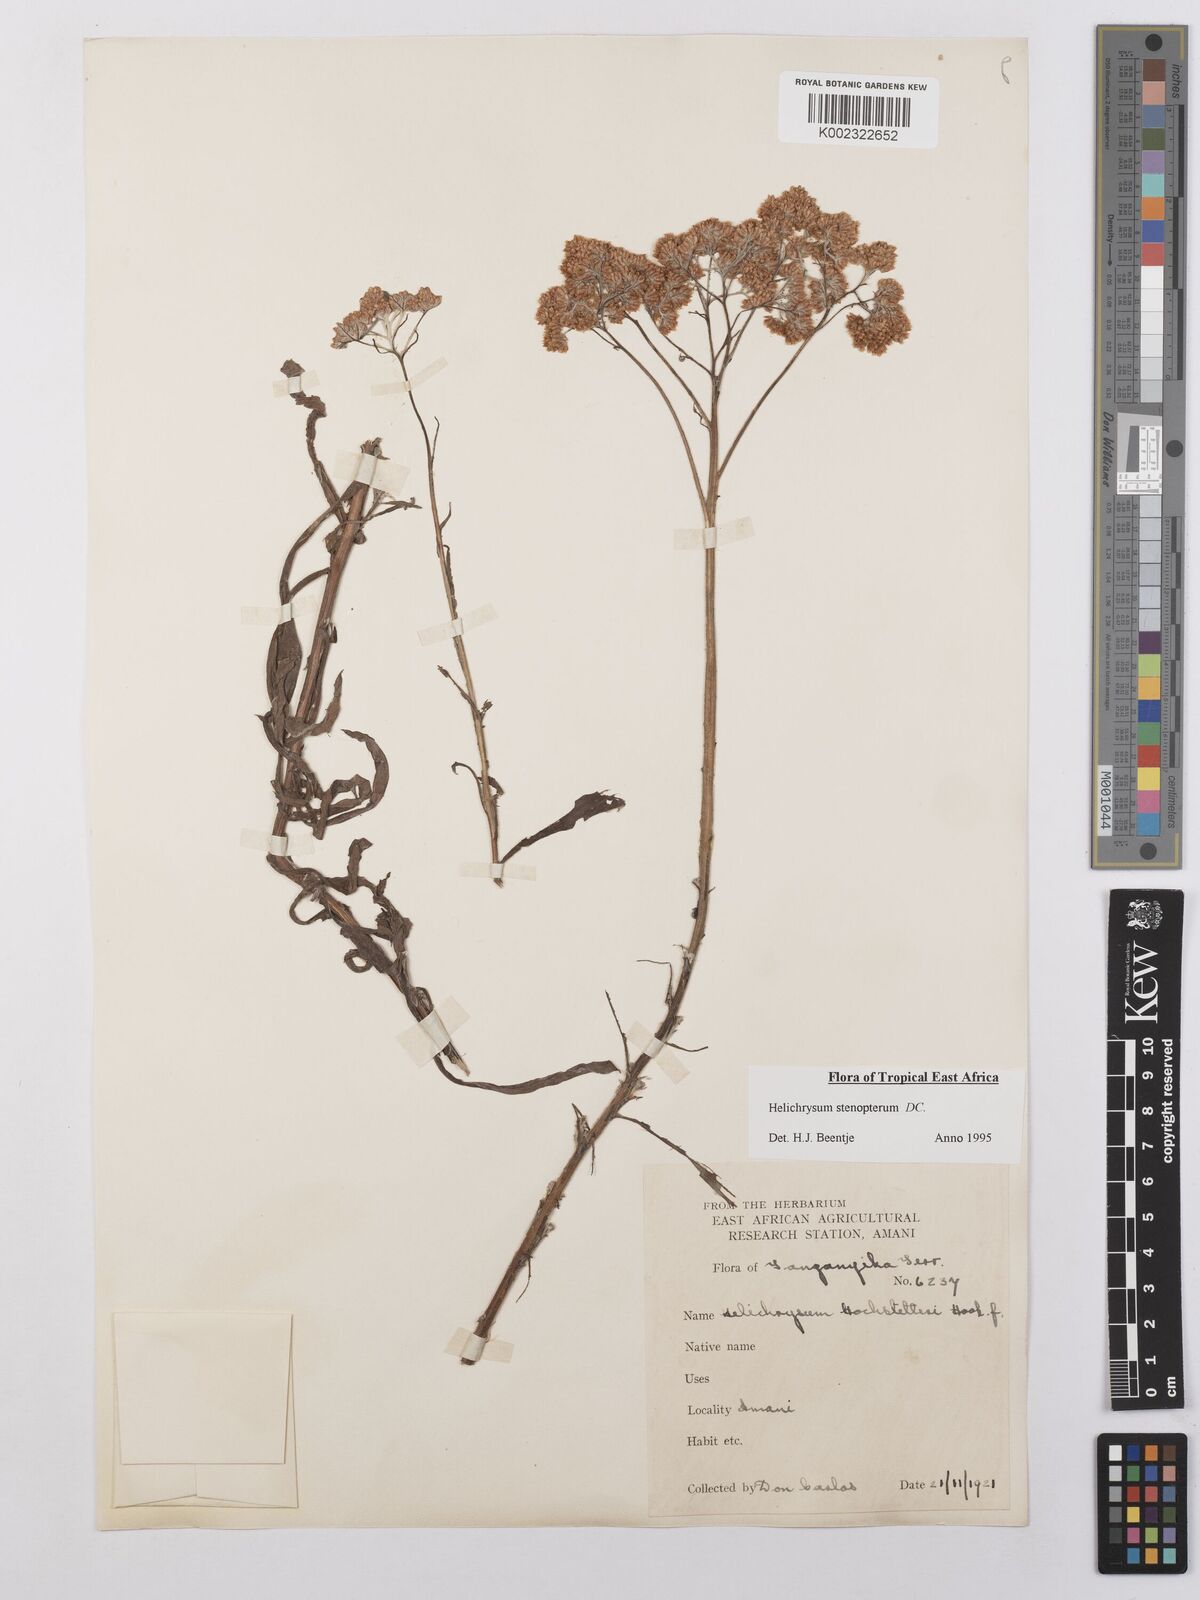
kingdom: Plantae
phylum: Tracheophyta
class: Magnoliopsida
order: Asterales
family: Asteraceae
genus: Helichrysum
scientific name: Helichrysum stenopterum
